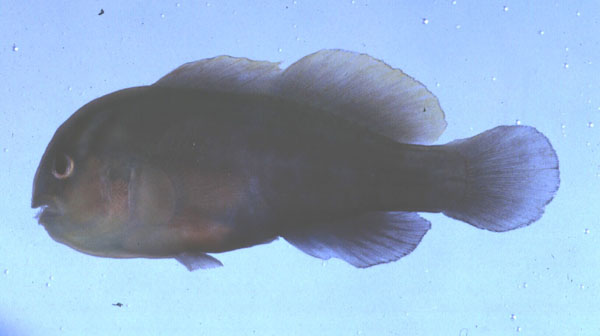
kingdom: Animalia
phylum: Chordata
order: Perciformes
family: Gobiidae
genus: Gobiodon
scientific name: Gobiodon micropus
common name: Small-eyed goby
